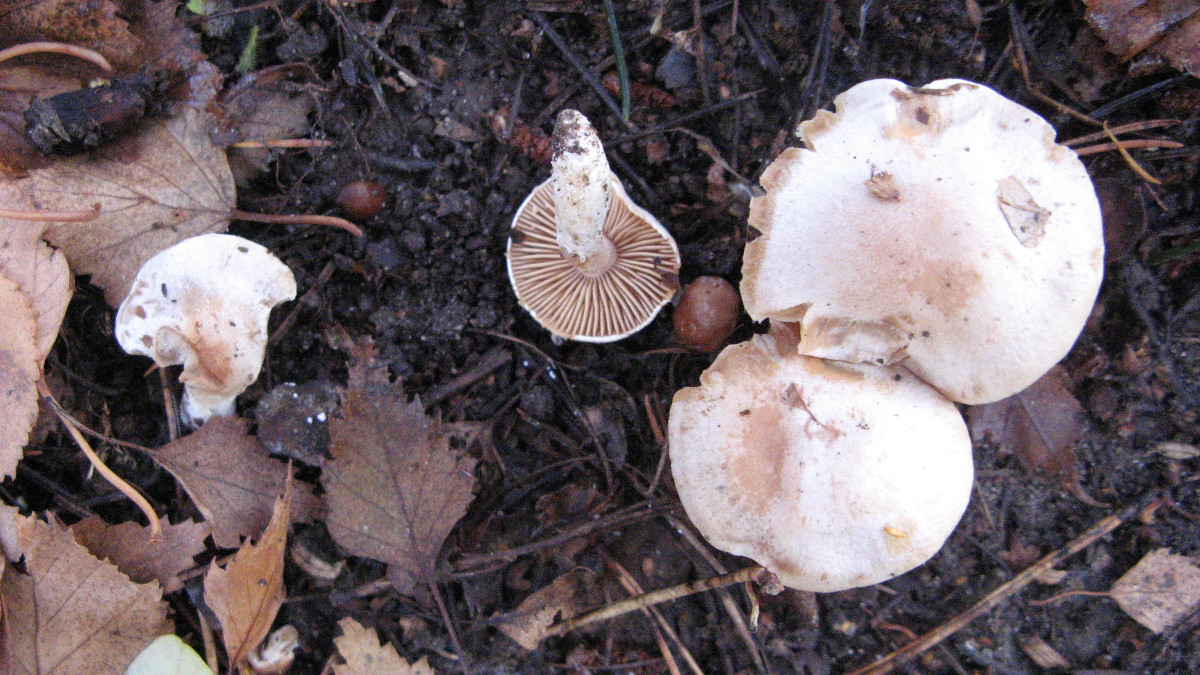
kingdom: Fungi
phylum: Basidiomycota
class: Agaricomycetes
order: Agaricales
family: Cortinariaceae
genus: Cortinarius
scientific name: Cortinarius
